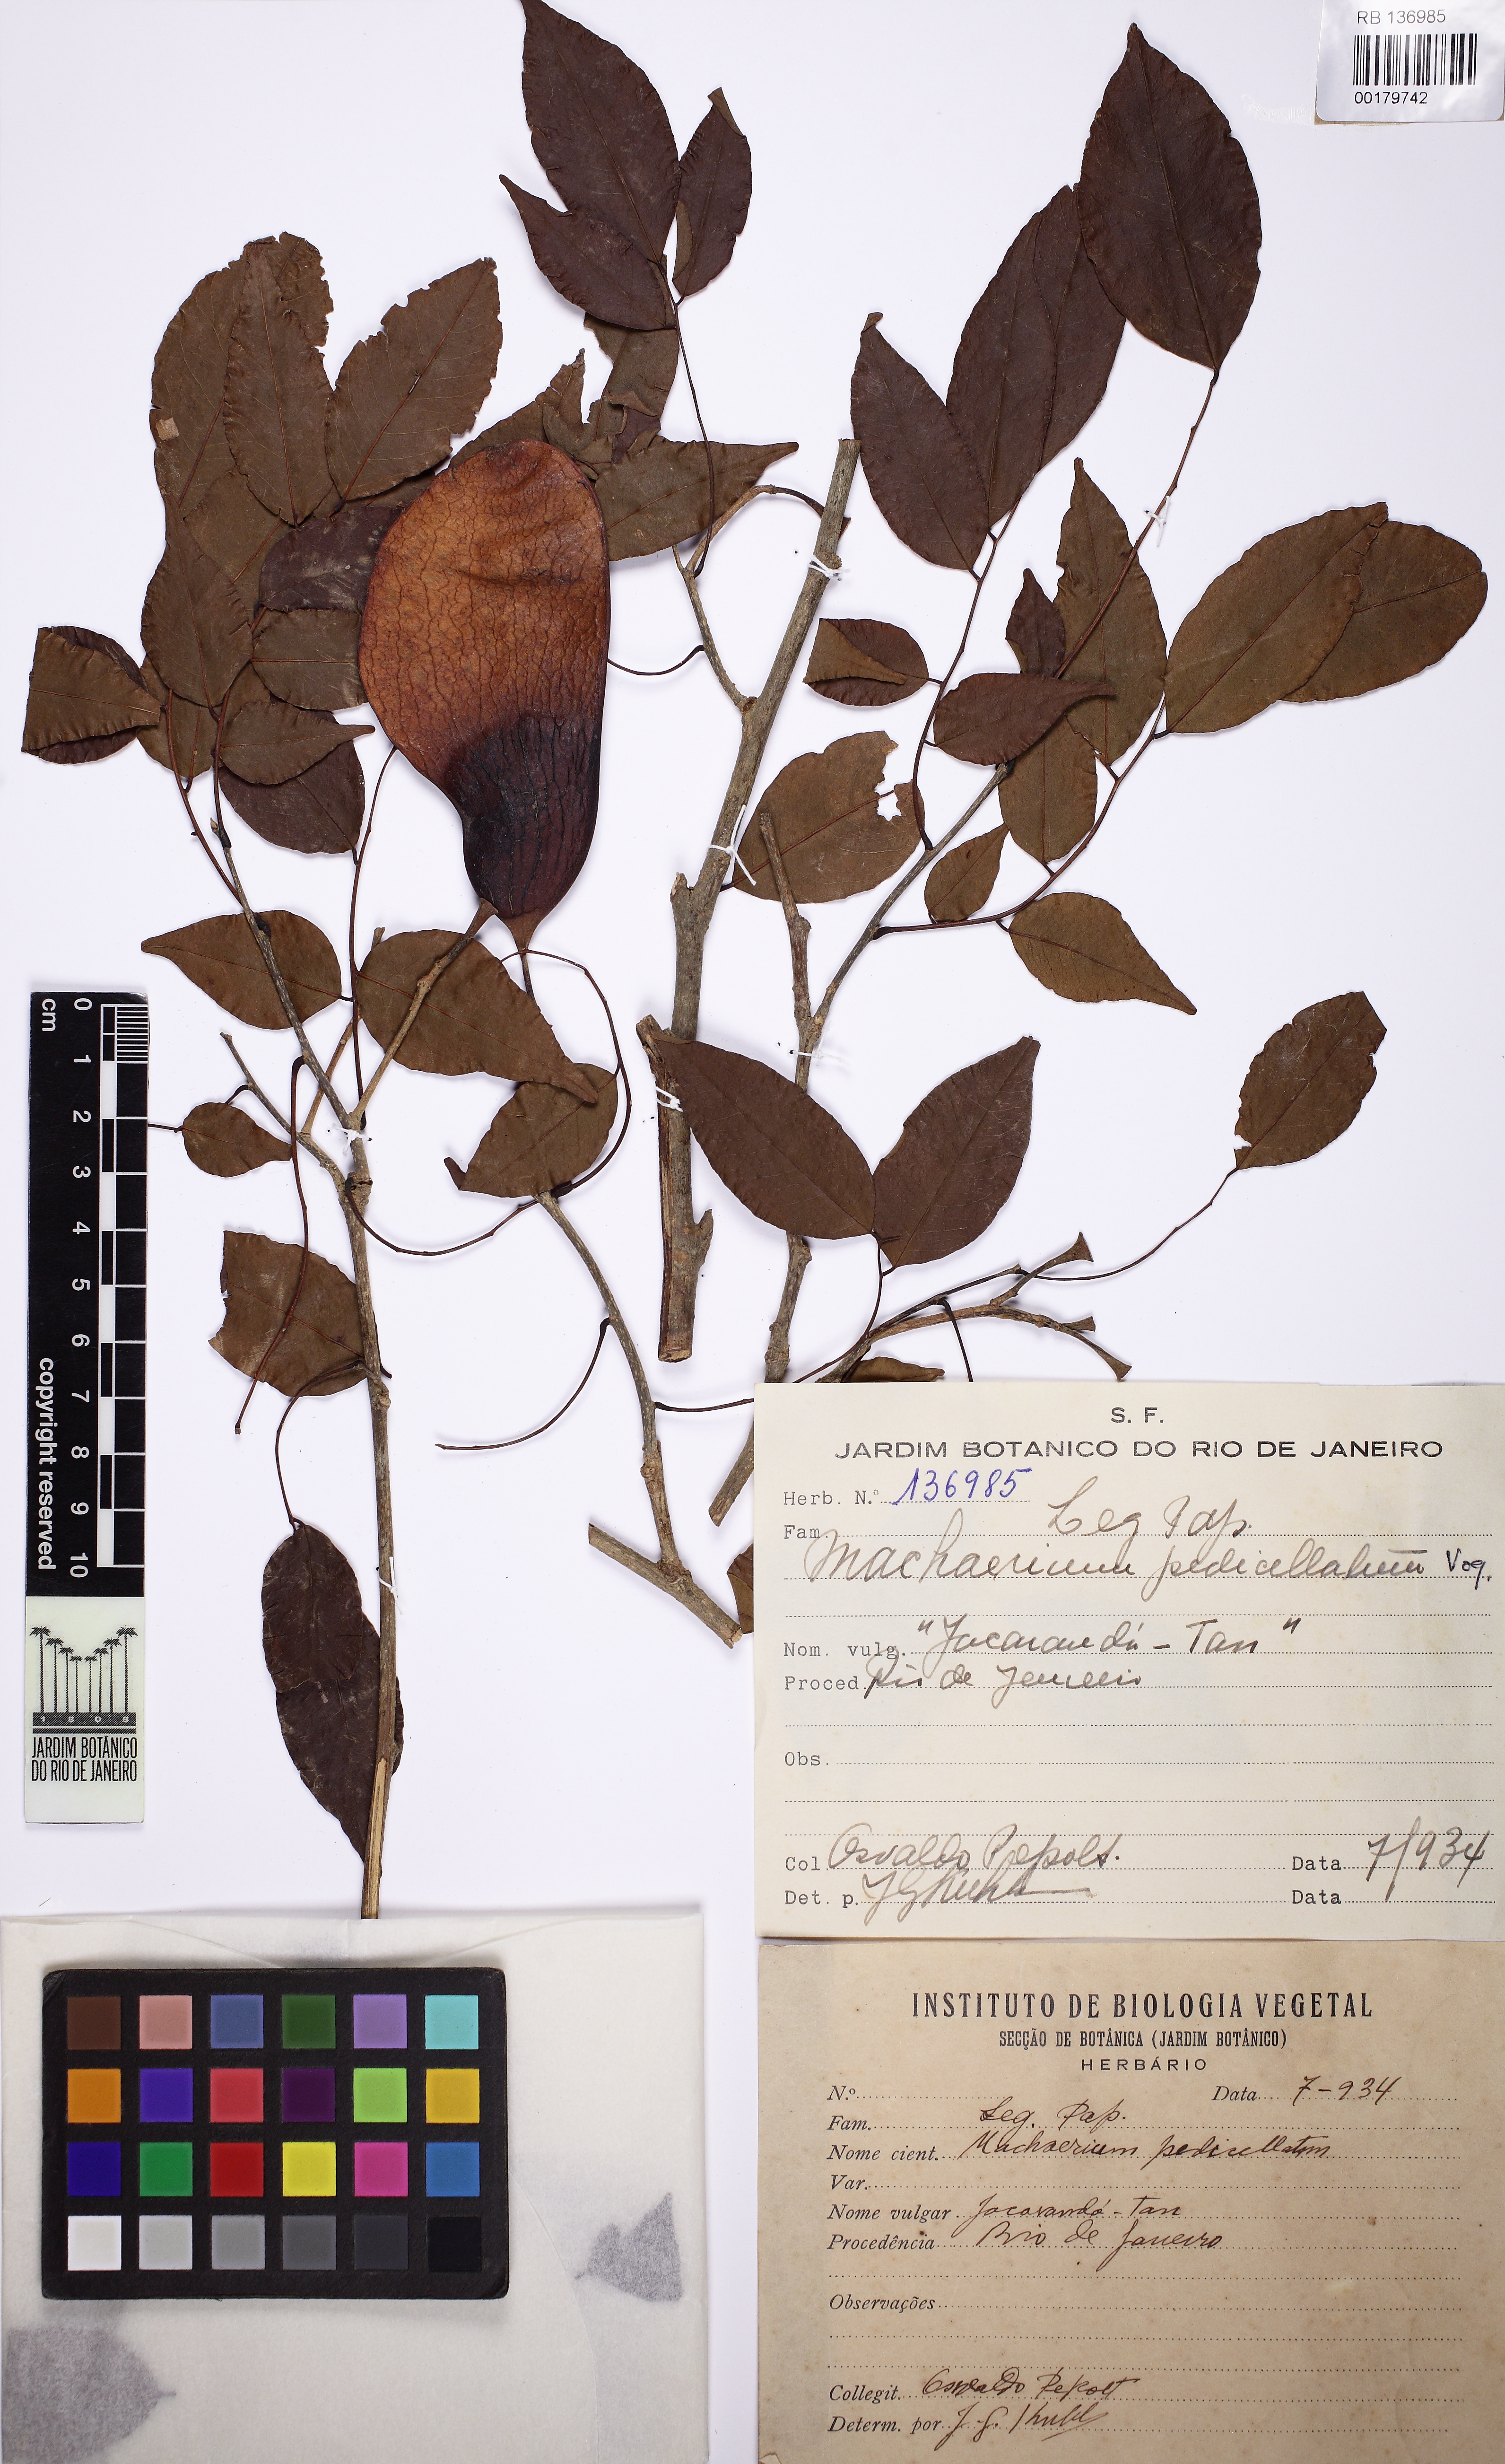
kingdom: Plantae
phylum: Tracheophyta
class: Magnoliopsida
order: Fabales
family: Fabaceae
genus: Machaerium
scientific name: Machaerium pedicellatum
